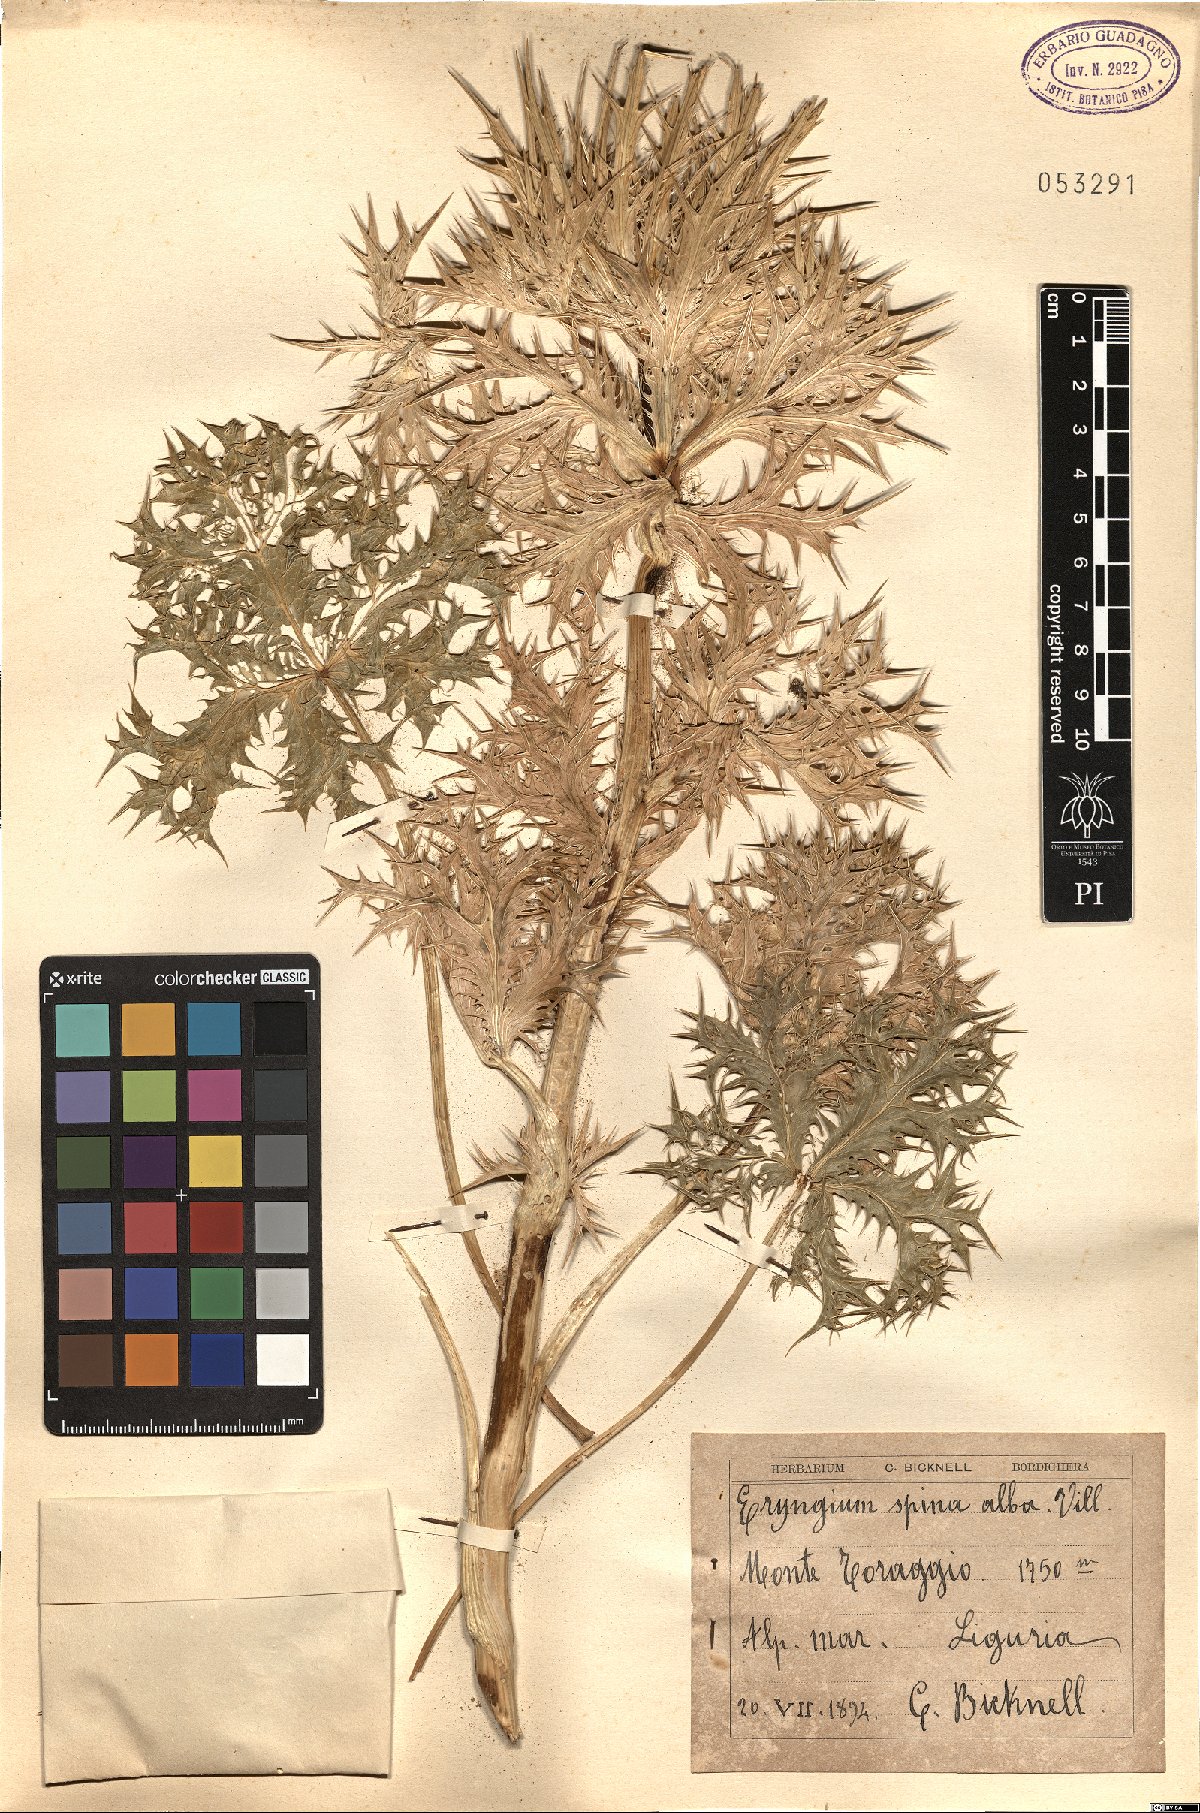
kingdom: Plantae
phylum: Tracheophyta
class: Magnoliopsida
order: Apiales
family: Apiaceae
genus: Eryngium
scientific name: Eryngium spinalba
